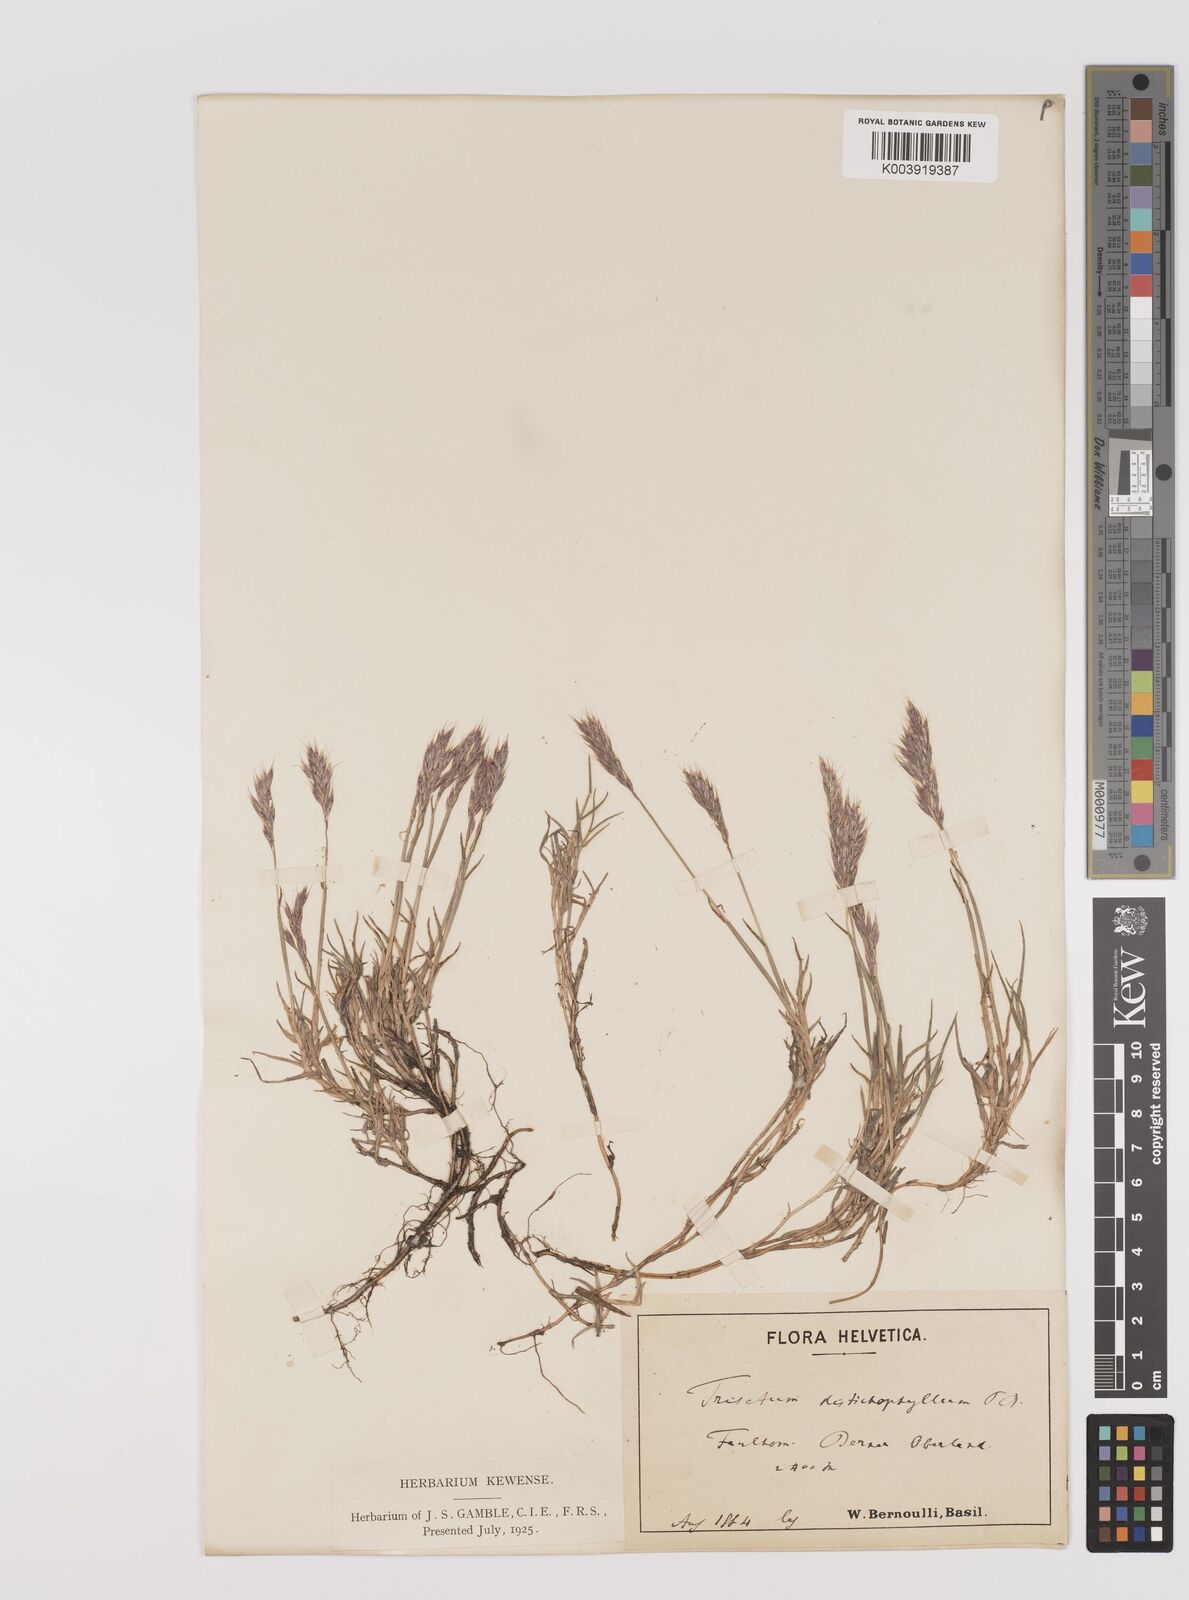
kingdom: Plantae
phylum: Tracheophyta
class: Liliopsida
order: Poales
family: Poaceae
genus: Acrospelion
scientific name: Acrospelion distichophyllum
